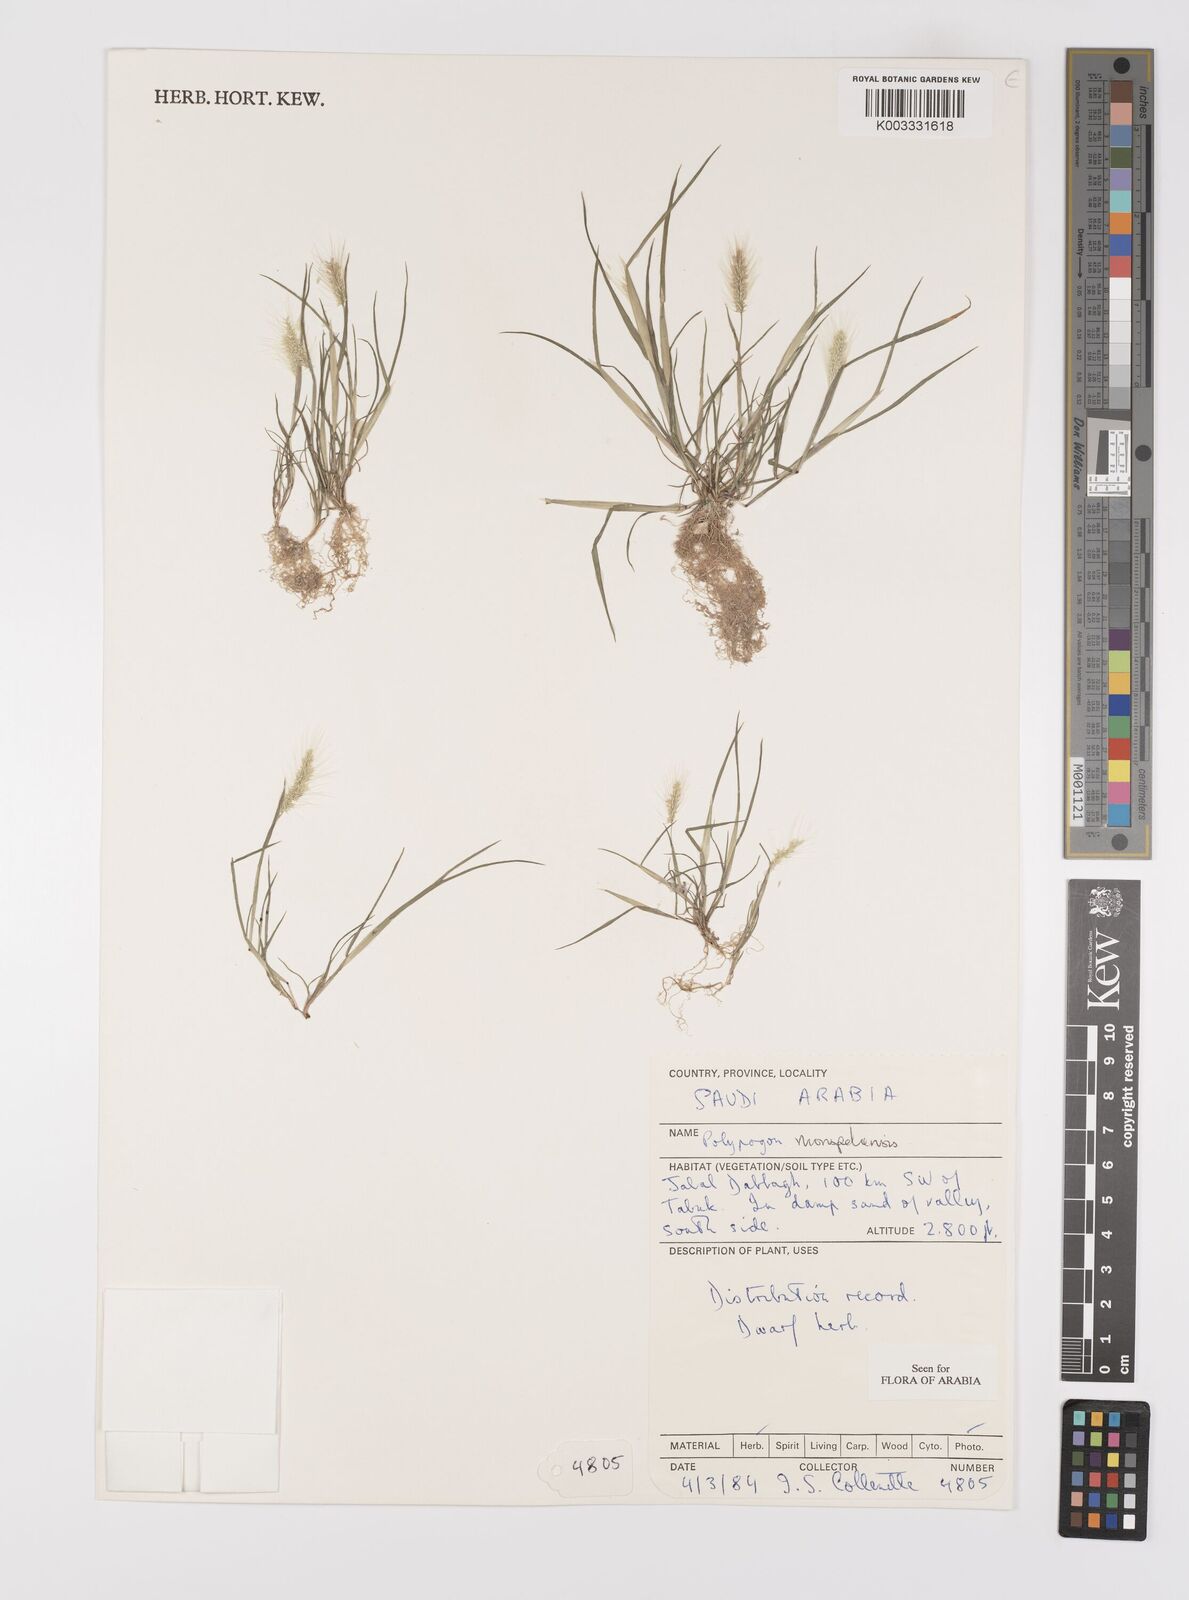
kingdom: Plantae
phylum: Tracheophyta
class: Liliopsida
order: Poales
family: Poaceae
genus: Polypogon
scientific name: Polypogon monspeliensis
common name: Annual rabbitsfoot grass
